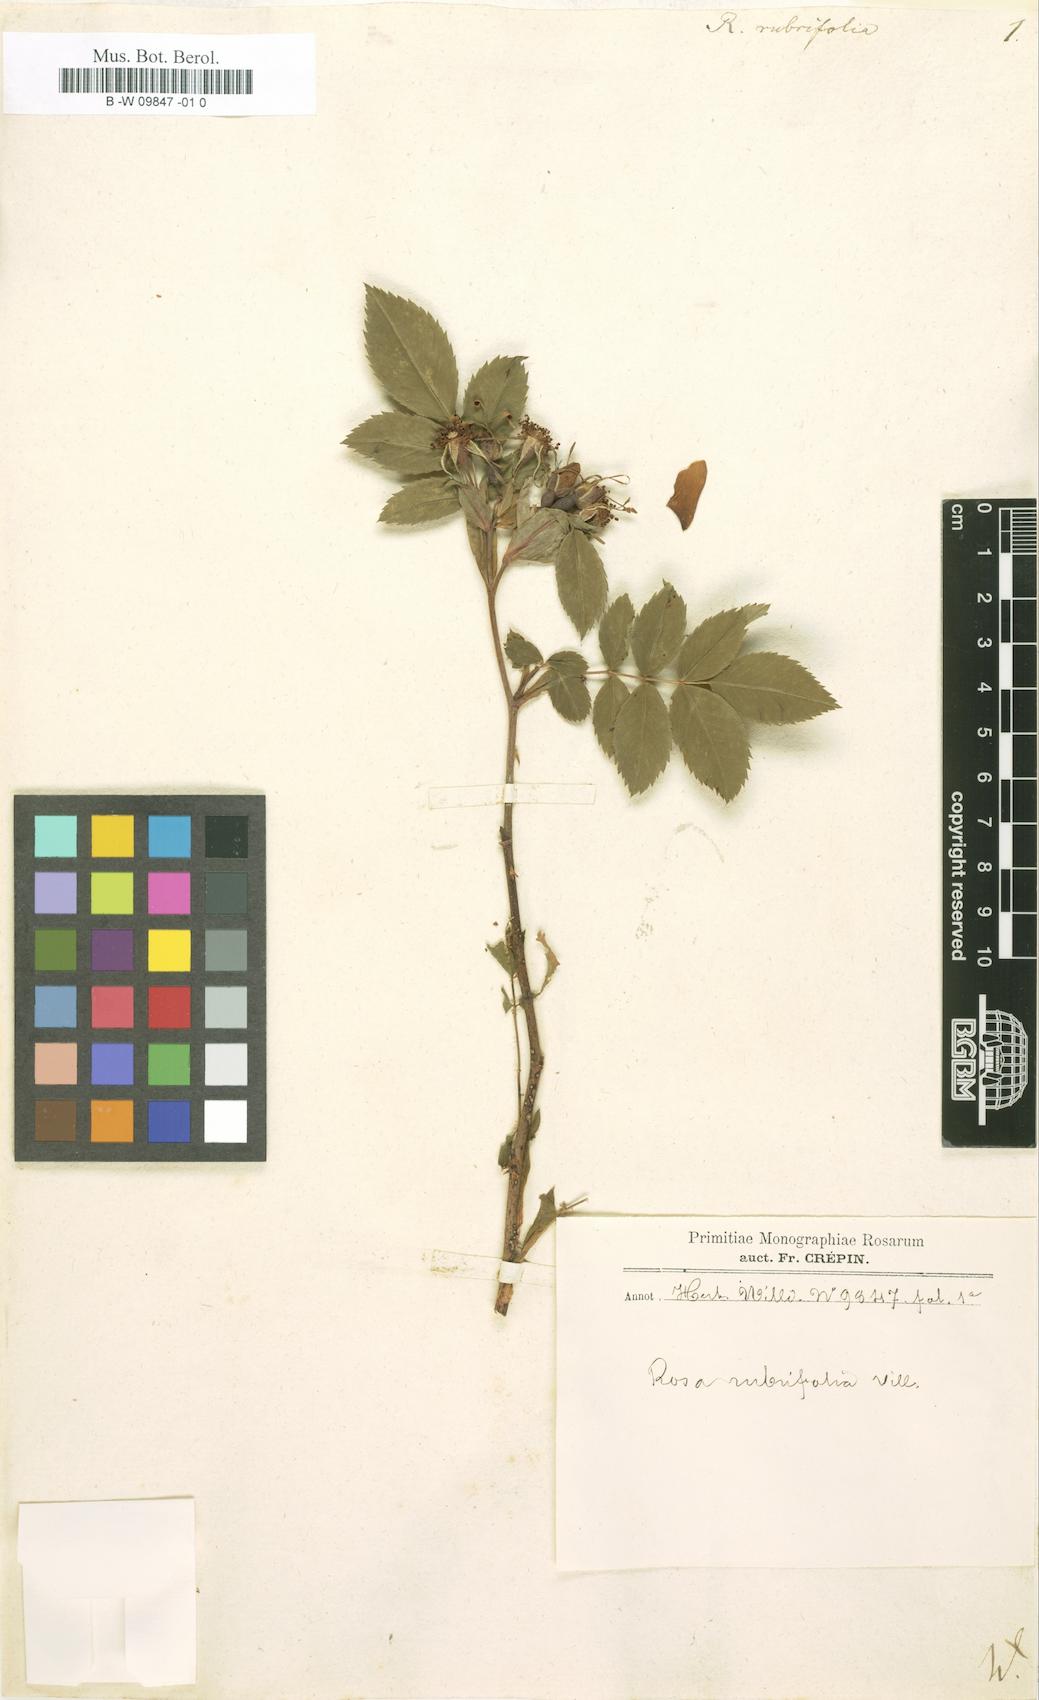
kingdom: Plantae
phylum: Tracheophyta
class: Magnoliopsida
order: Rosales
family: Rosaceae
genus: Rosa
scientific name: Rosa
